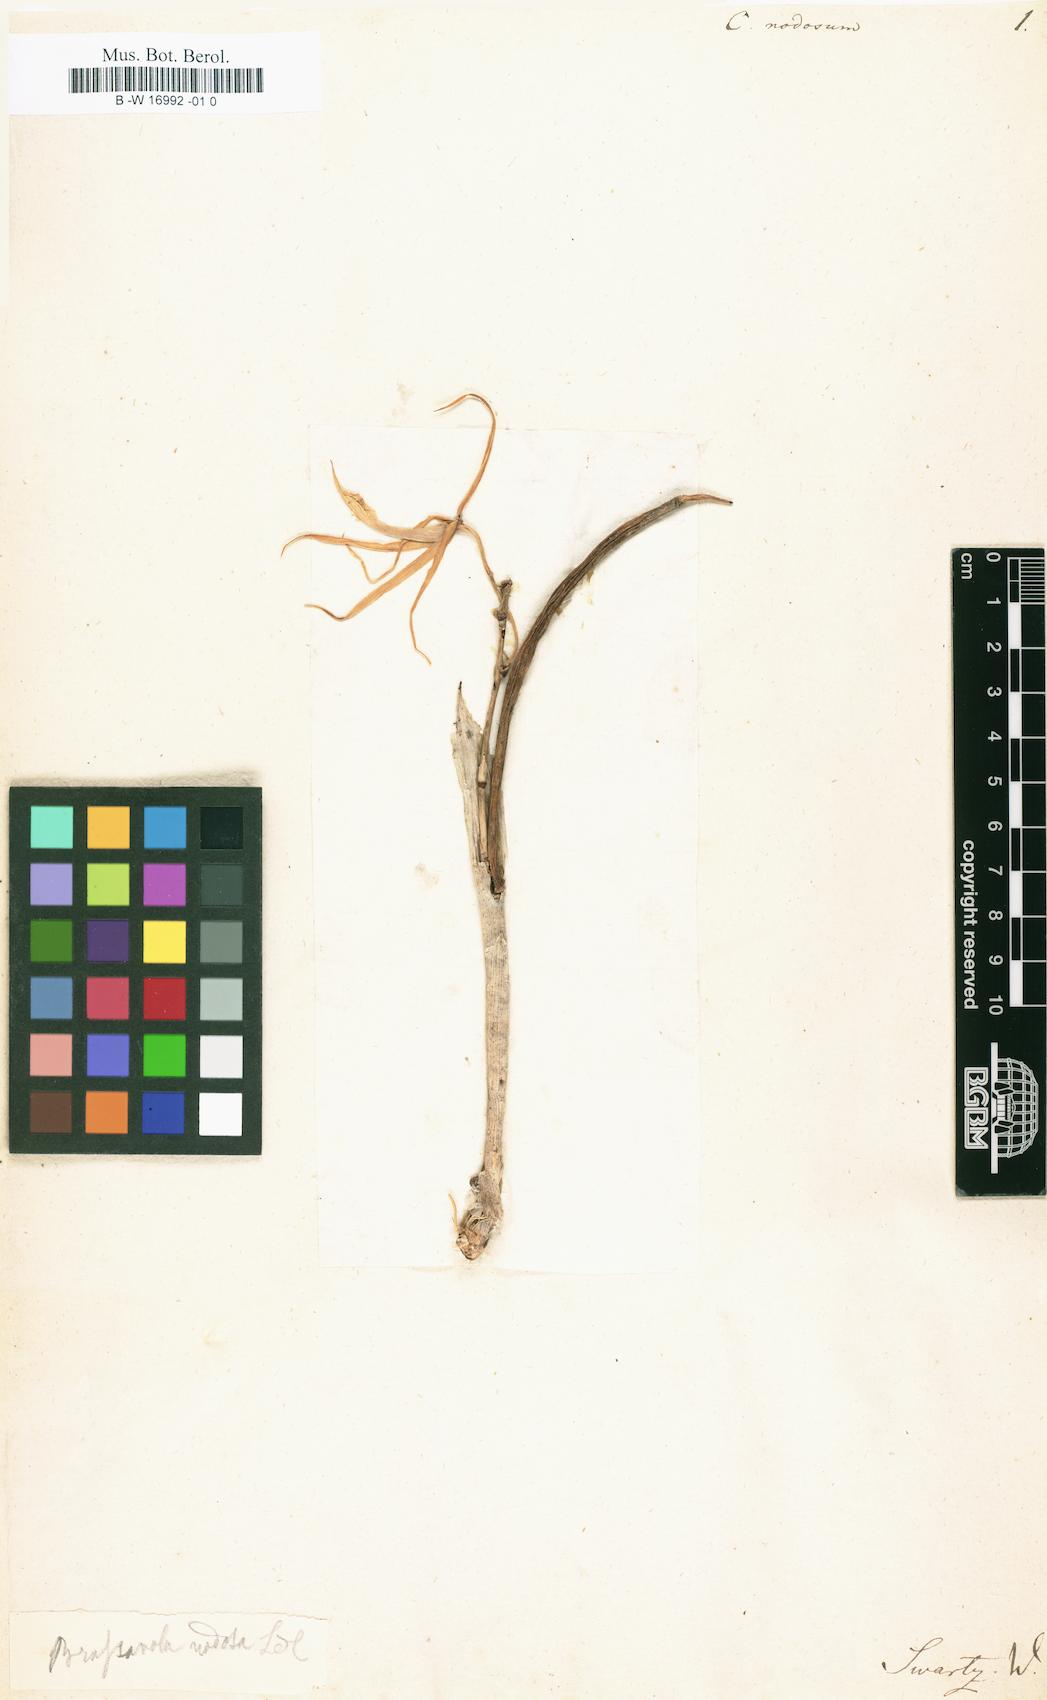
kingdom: Plantae
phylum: Tracheophyta
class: Liliopsida
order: Asparagales
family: Orchidaceae
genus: Brassavola
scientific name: Brassavola nodosa
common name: Lady of the night
